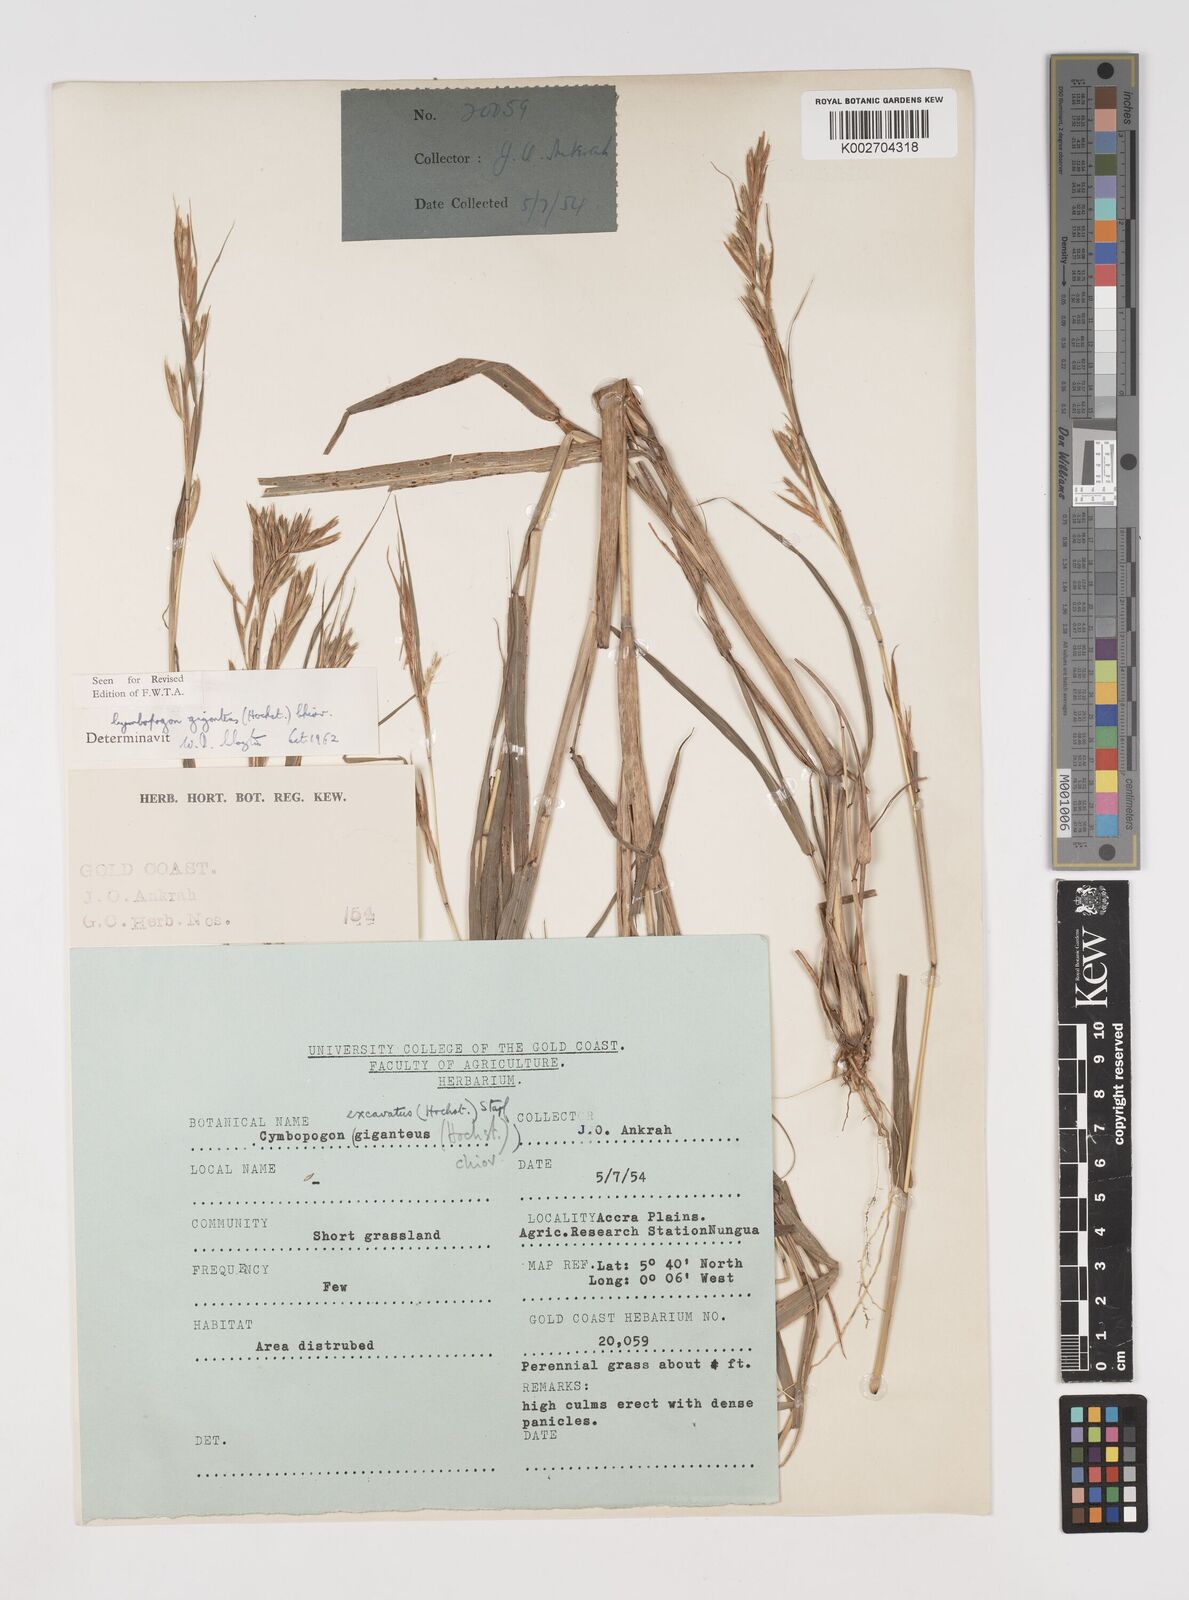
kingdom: Plantae
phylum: Tracheophyta
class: Liliopsida
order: Poales
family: Poaceae
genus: Cymbopogon
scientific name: Cymbopogon giganteus
